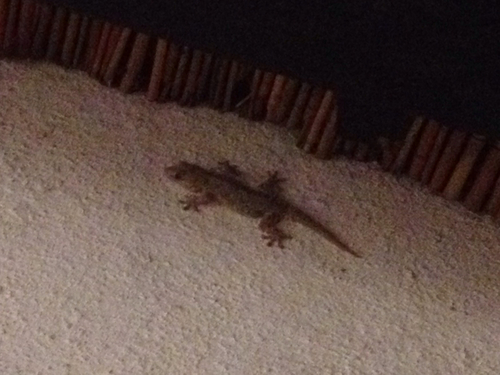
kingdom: Animalia
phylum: Chordata
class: Squamata
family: Phyllodactylidae
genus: Tarentola
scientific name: Tarentola mauritanica
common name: Moorish gecko
